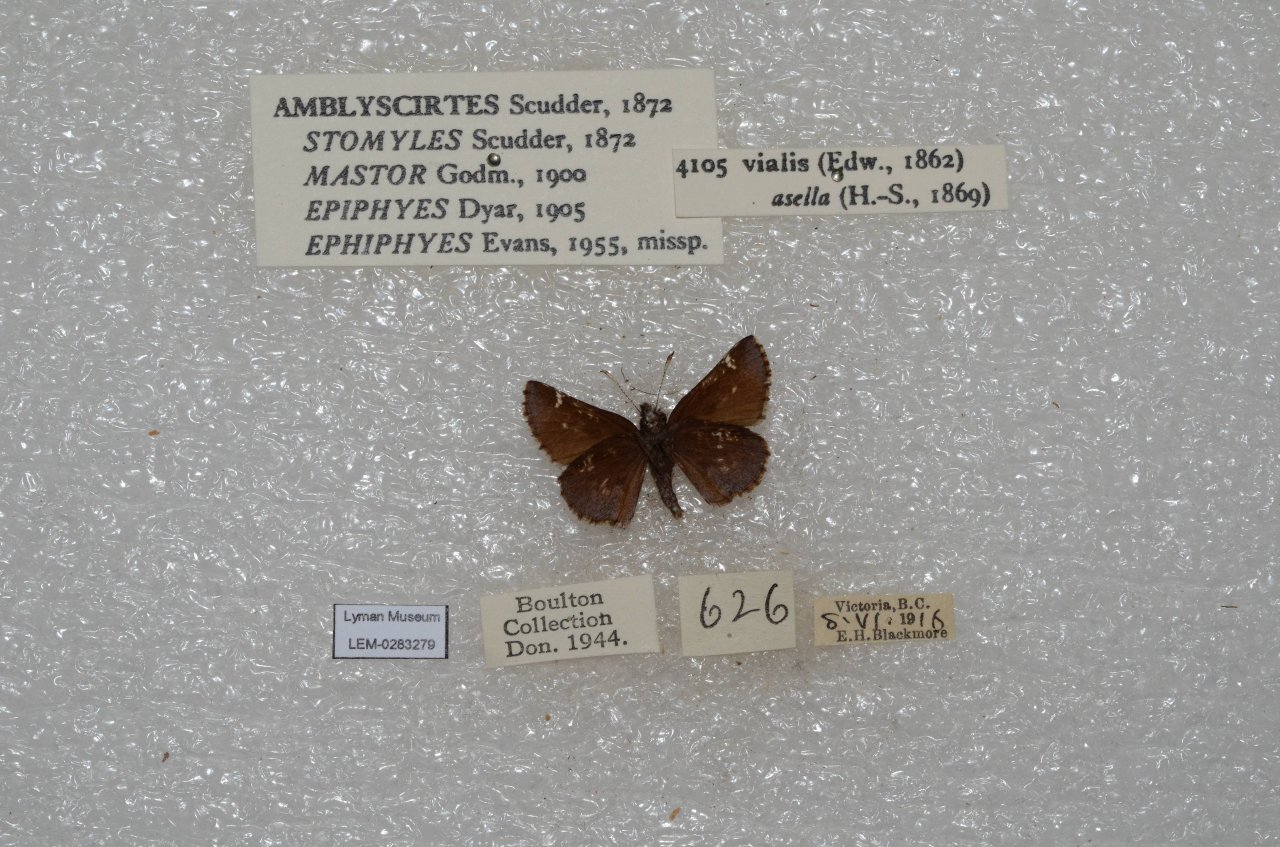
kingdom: Animalia
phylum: Arthropoda
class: Insecta
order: Lepidoptera
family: Hesperiidae
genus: Mastor
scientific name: Mastor vialis
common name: Common Roadside-Skipper
